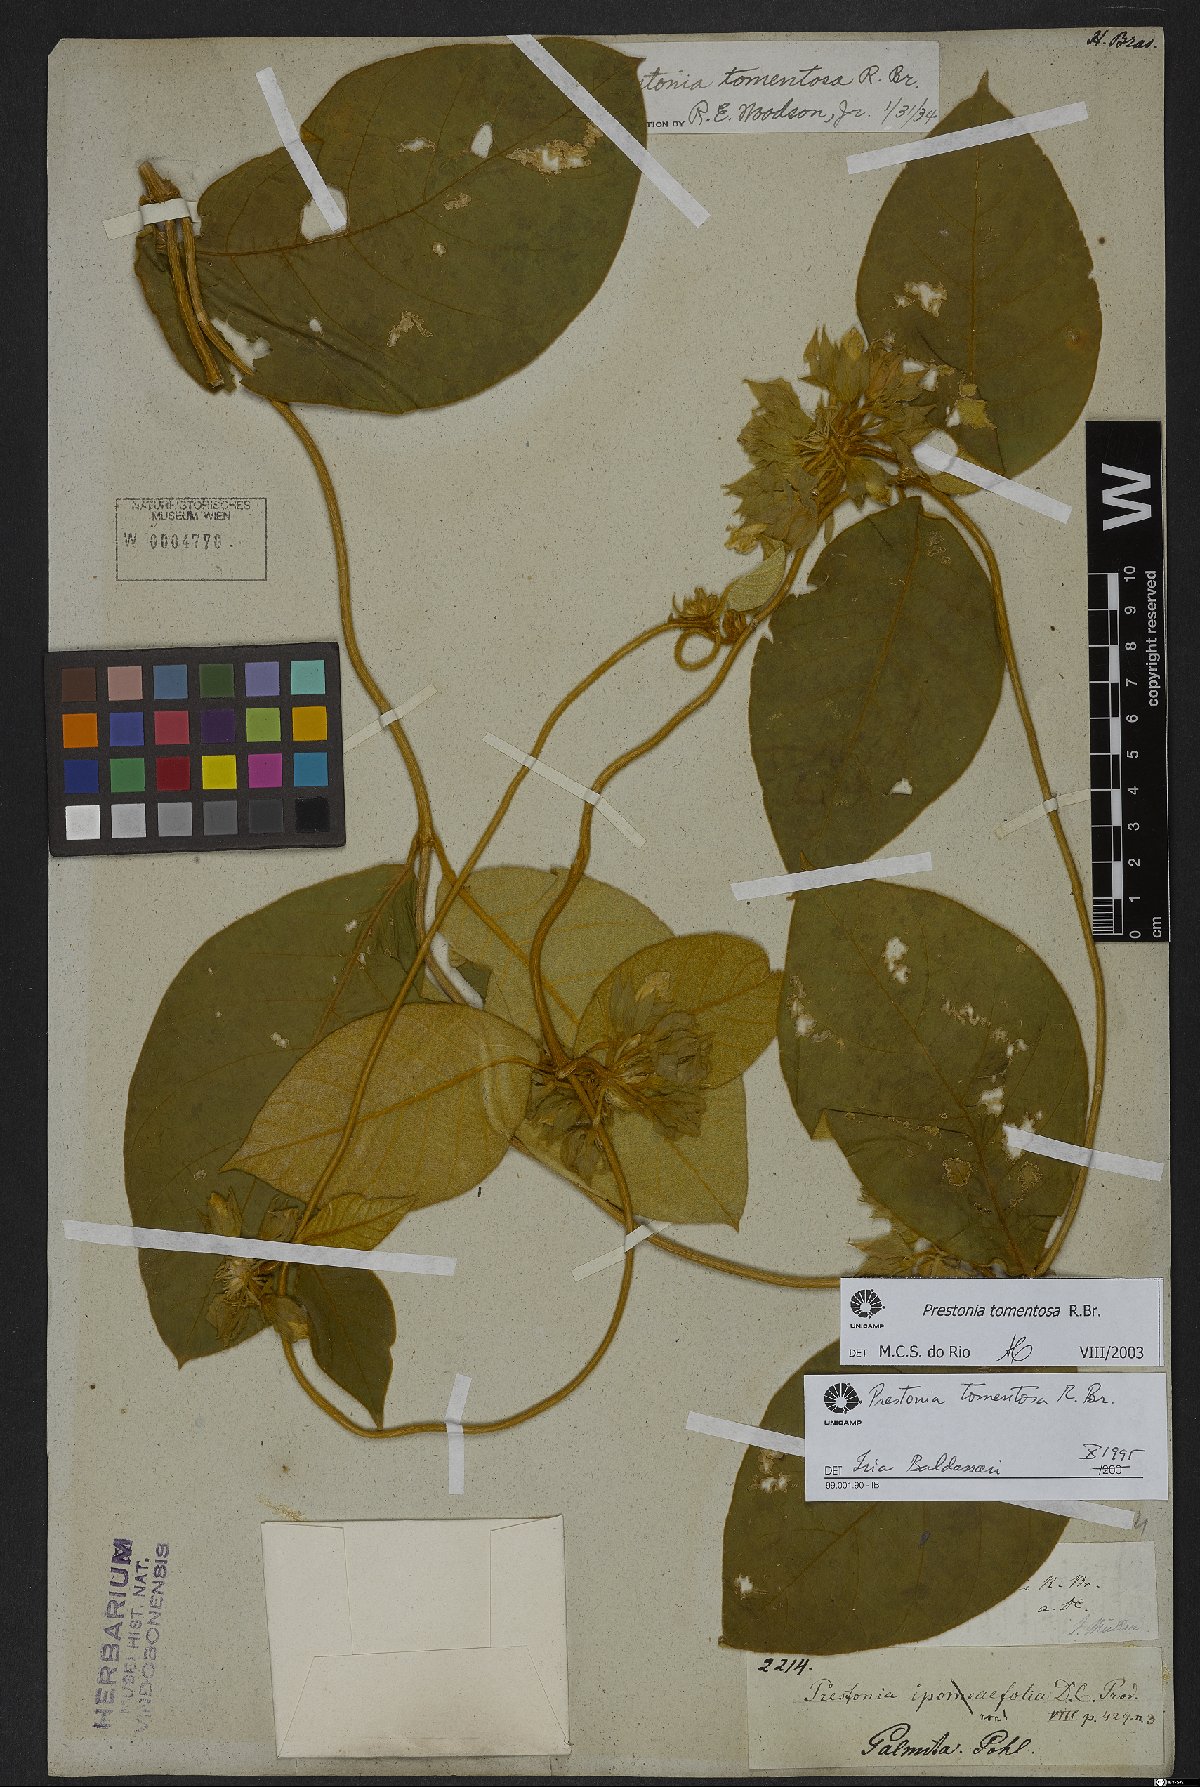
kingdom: Plantae
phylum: Tracheophyta
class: Magnoliopsida
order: Gentianales
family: Apocynaceae
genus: Prestonia
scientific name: Prestonia tomentosa
